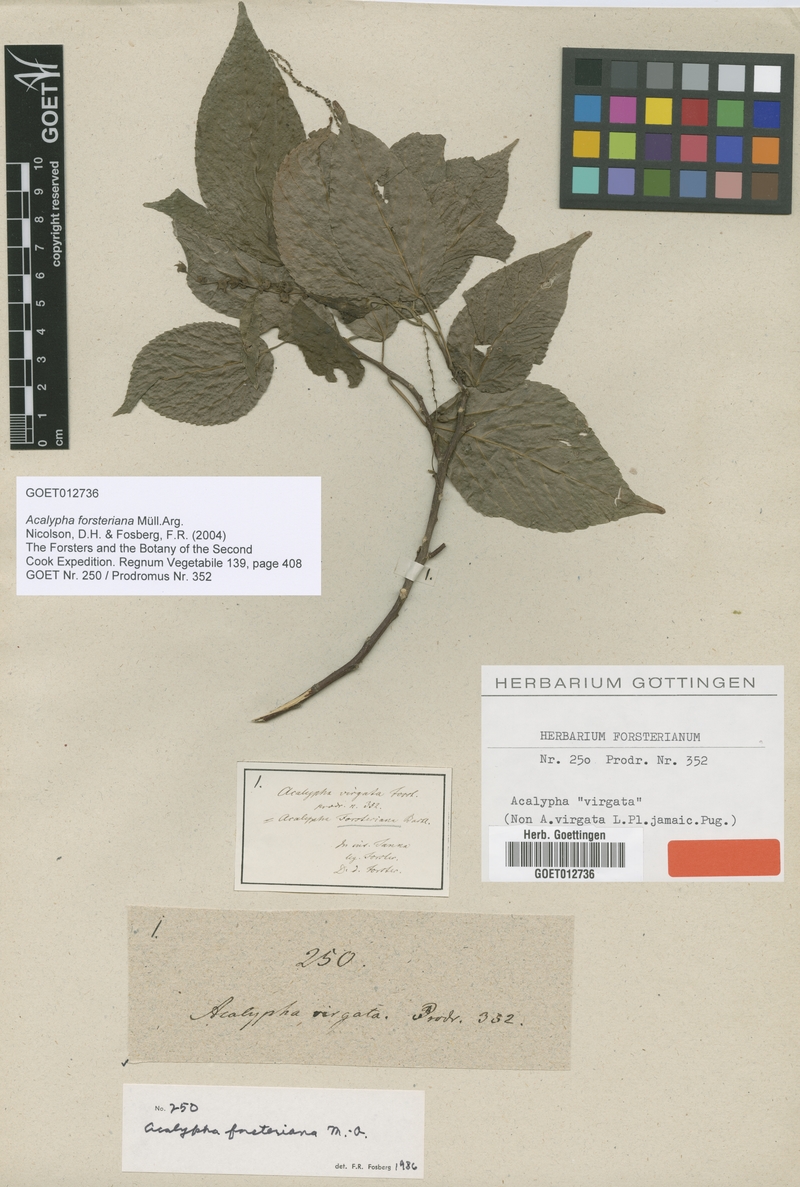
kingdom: Plantae
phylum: Tracheophyta
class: Magnoliopsida
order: Malpighiales
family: Euphorbiaceae
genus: Acalypha
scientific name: Acalypha forsteriana
